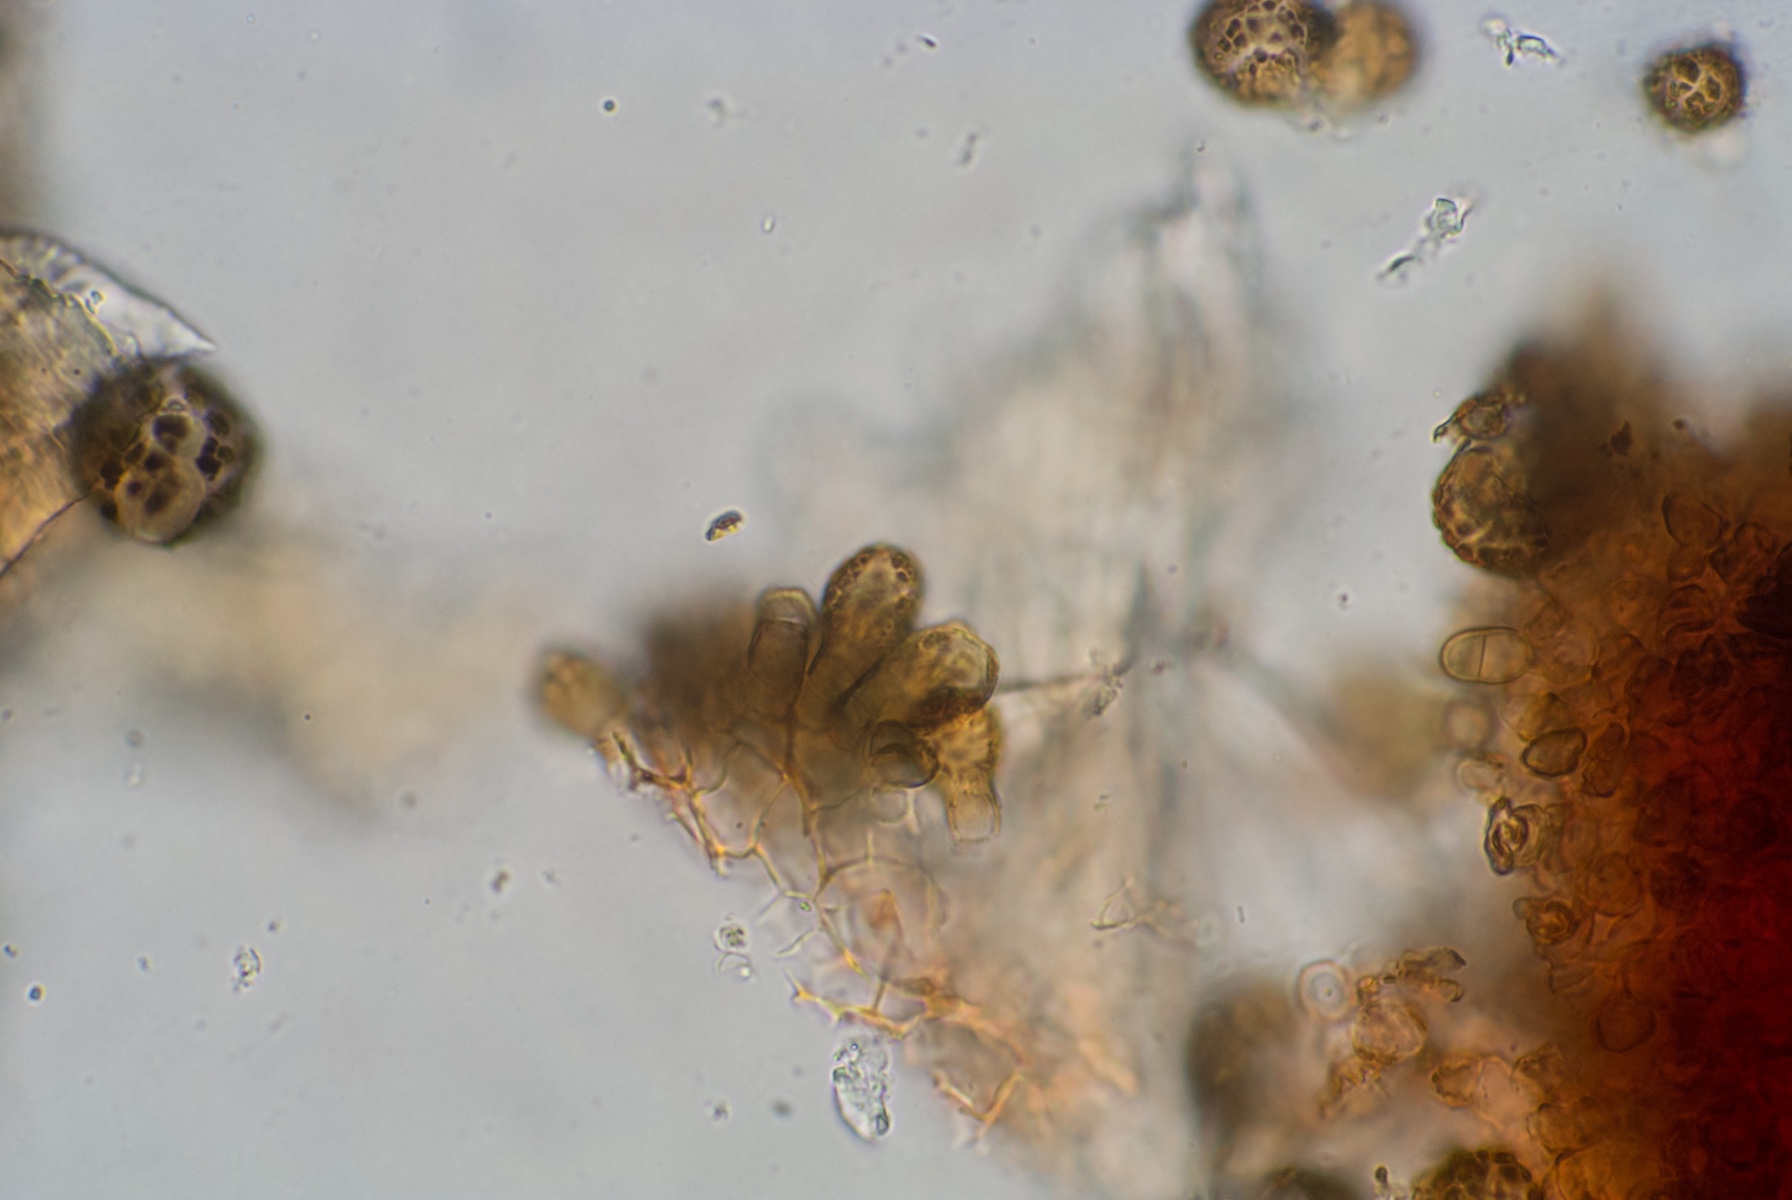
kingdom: Fungi
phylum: Ascomycota
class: Dothideomycetes
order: Pleosporales
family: Didymellaceae
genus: Epicoccum
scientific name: Epicoccum nigrum
